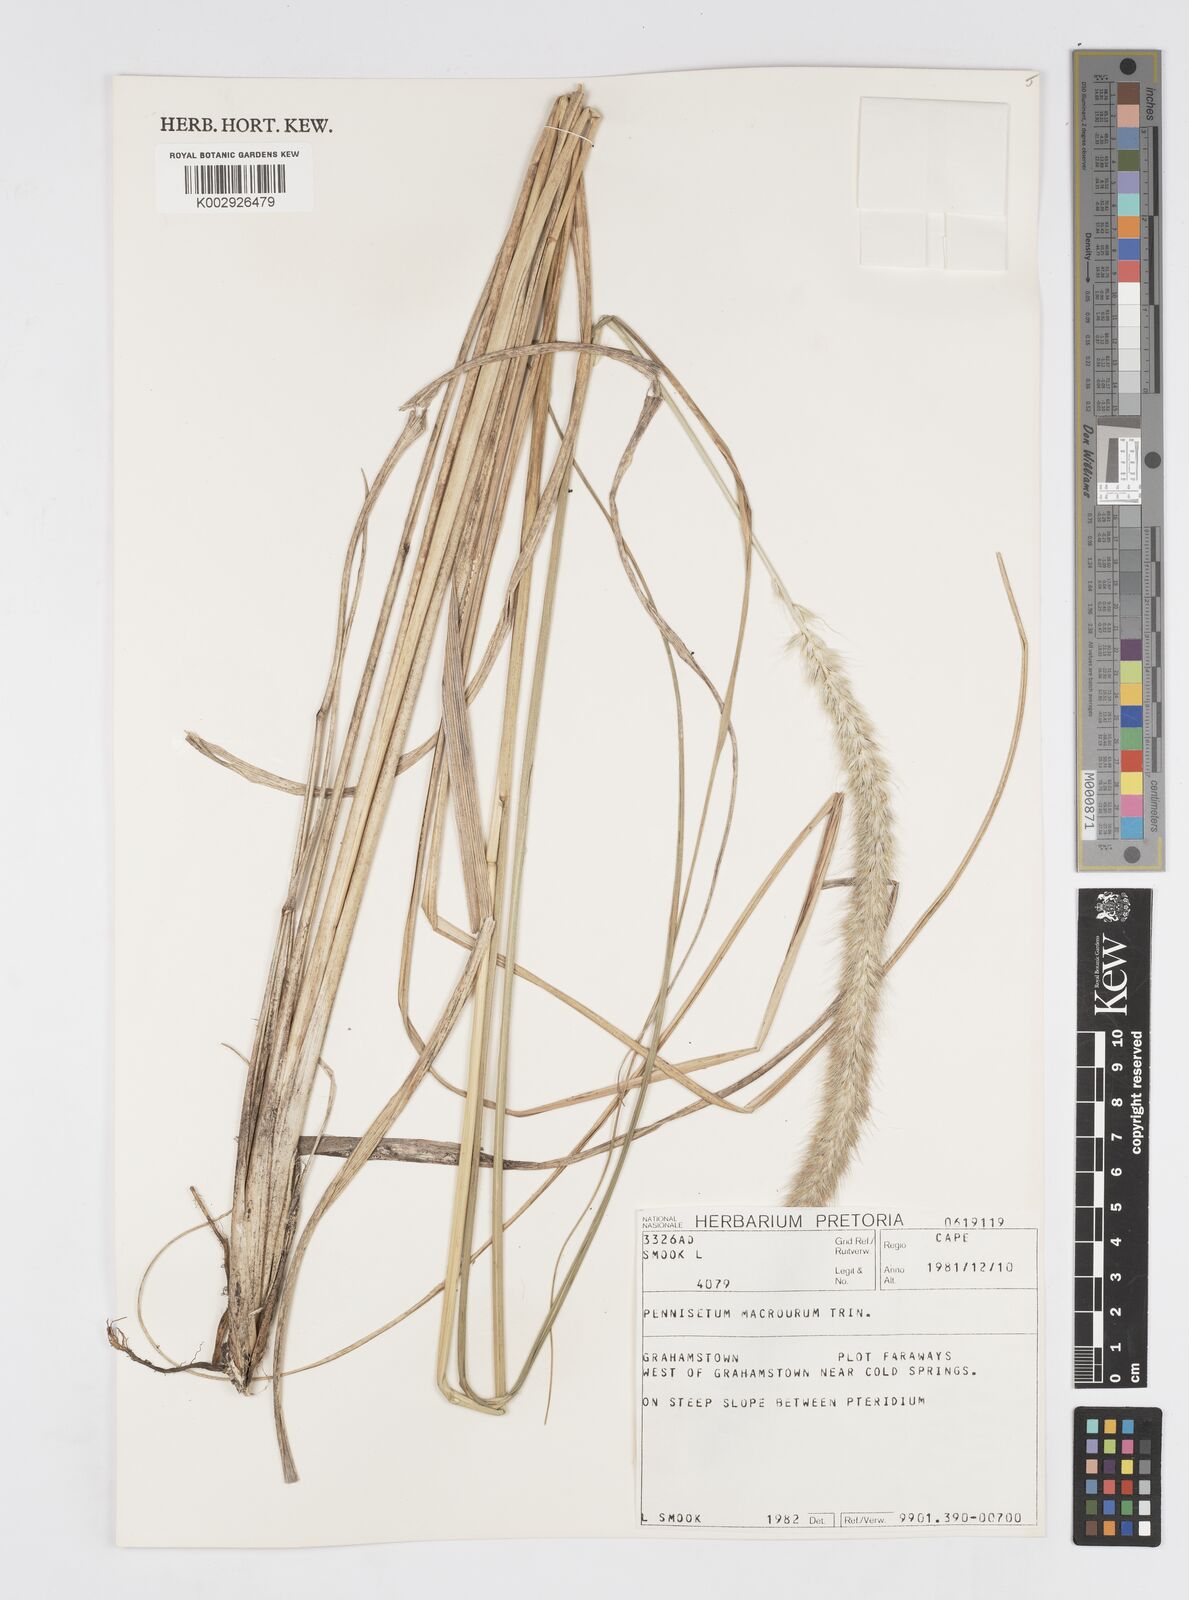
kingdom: Plantae
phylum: Tracheophyta
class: Liliopsida
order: Poales
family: Poaceae
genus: Cenchrus
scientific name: Cenchrus caudatus
